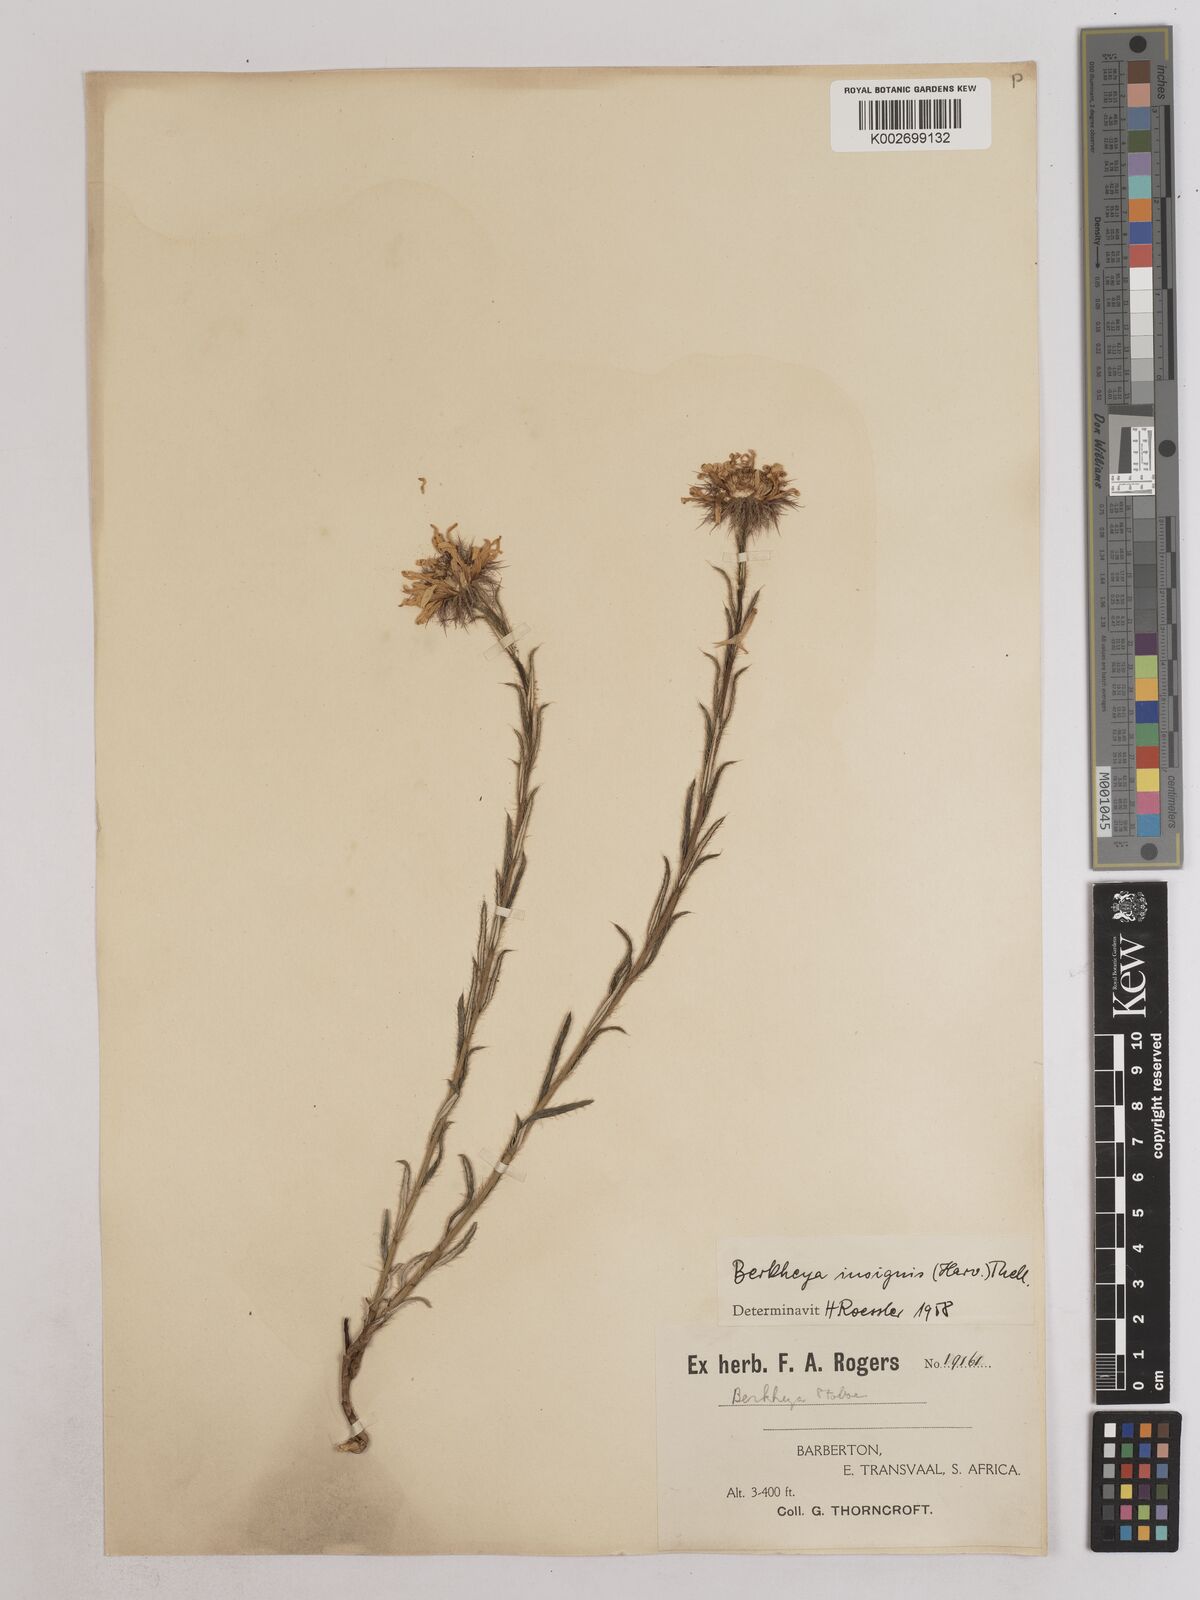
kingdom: Plantae
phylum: Tracheophyta
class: Magnoliopsida
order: Asterales
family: Asteraceae
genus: Berkheya
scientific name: Berkheya insignis
